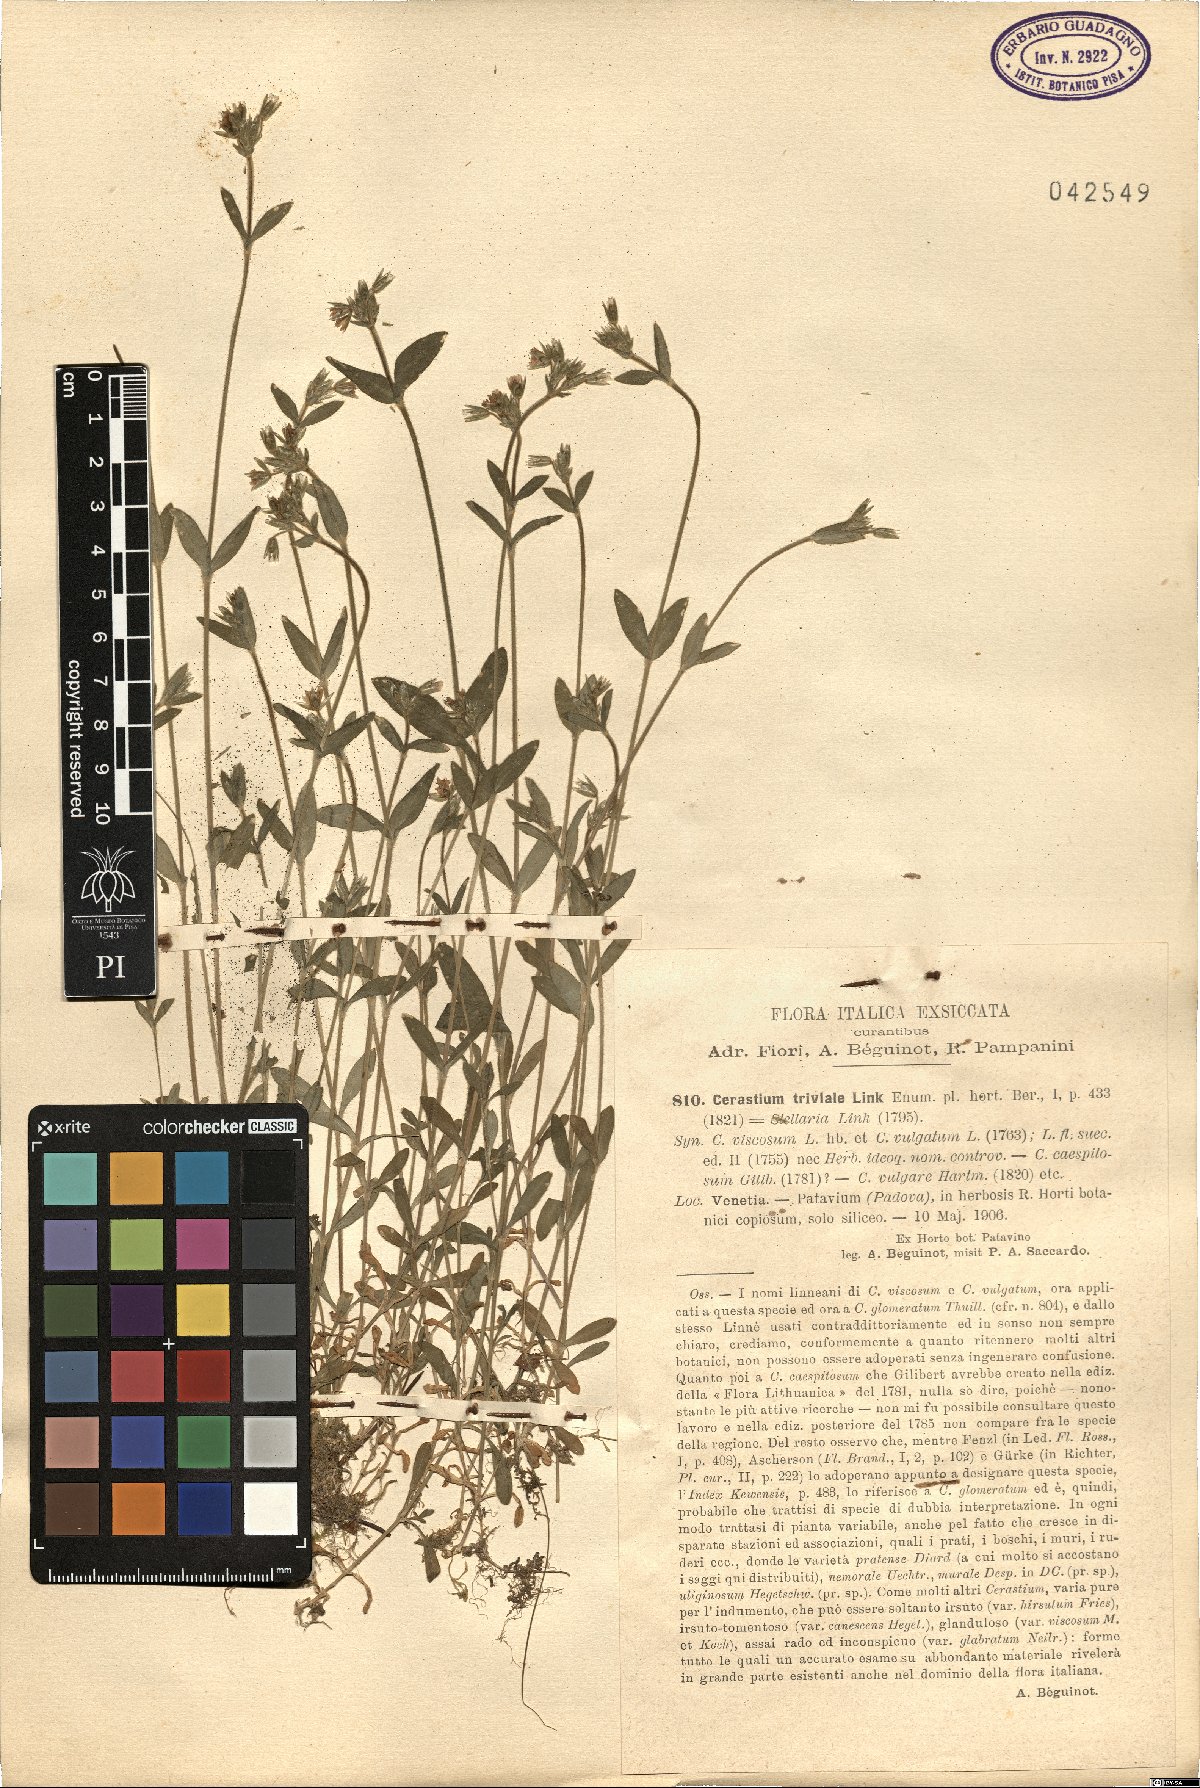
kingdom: Plantae
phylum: Tracheophyta
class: Magnoliopsida
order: Caryophyllales
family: Caryophyllaceae
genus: Cerastium
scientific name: Cerastium glomeratum
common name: Sticky chickweed
